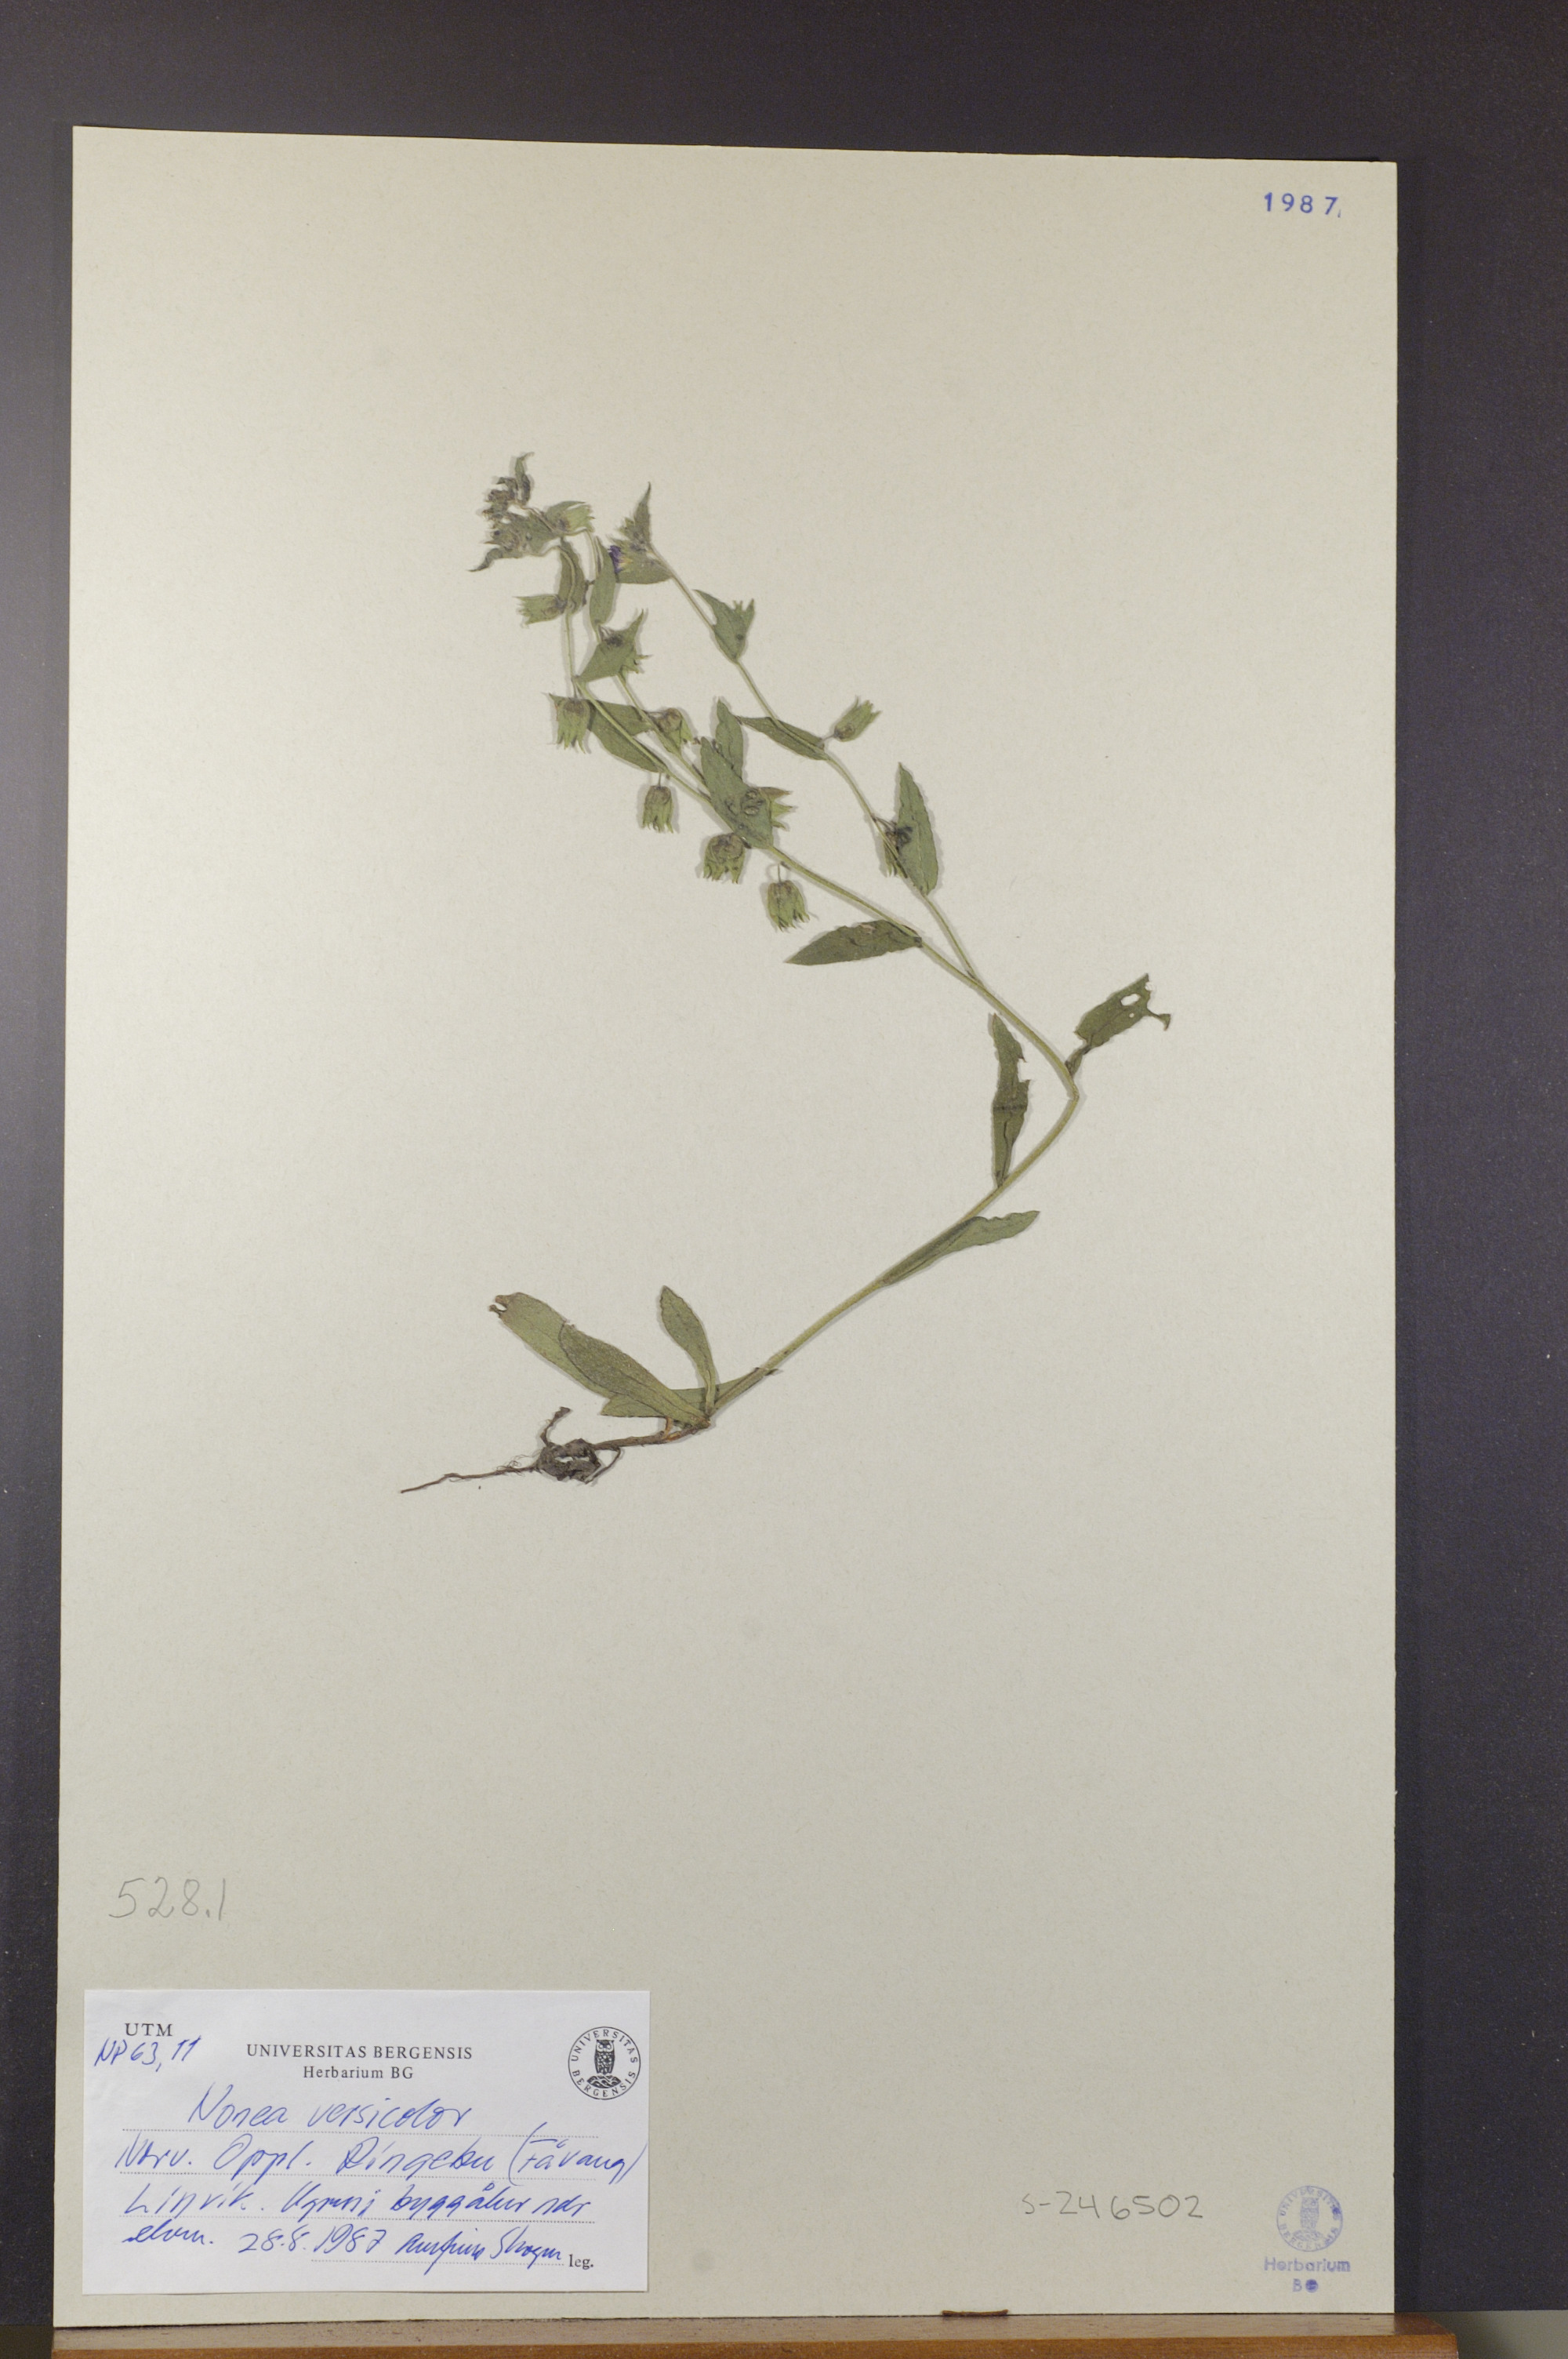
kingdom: Plantae
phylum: Tracheophyta
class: Magnoliopsida
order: Boraginales
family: Boraginaceae
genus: Nonea
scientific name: Nonea versicolor
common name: Varied monkswort
